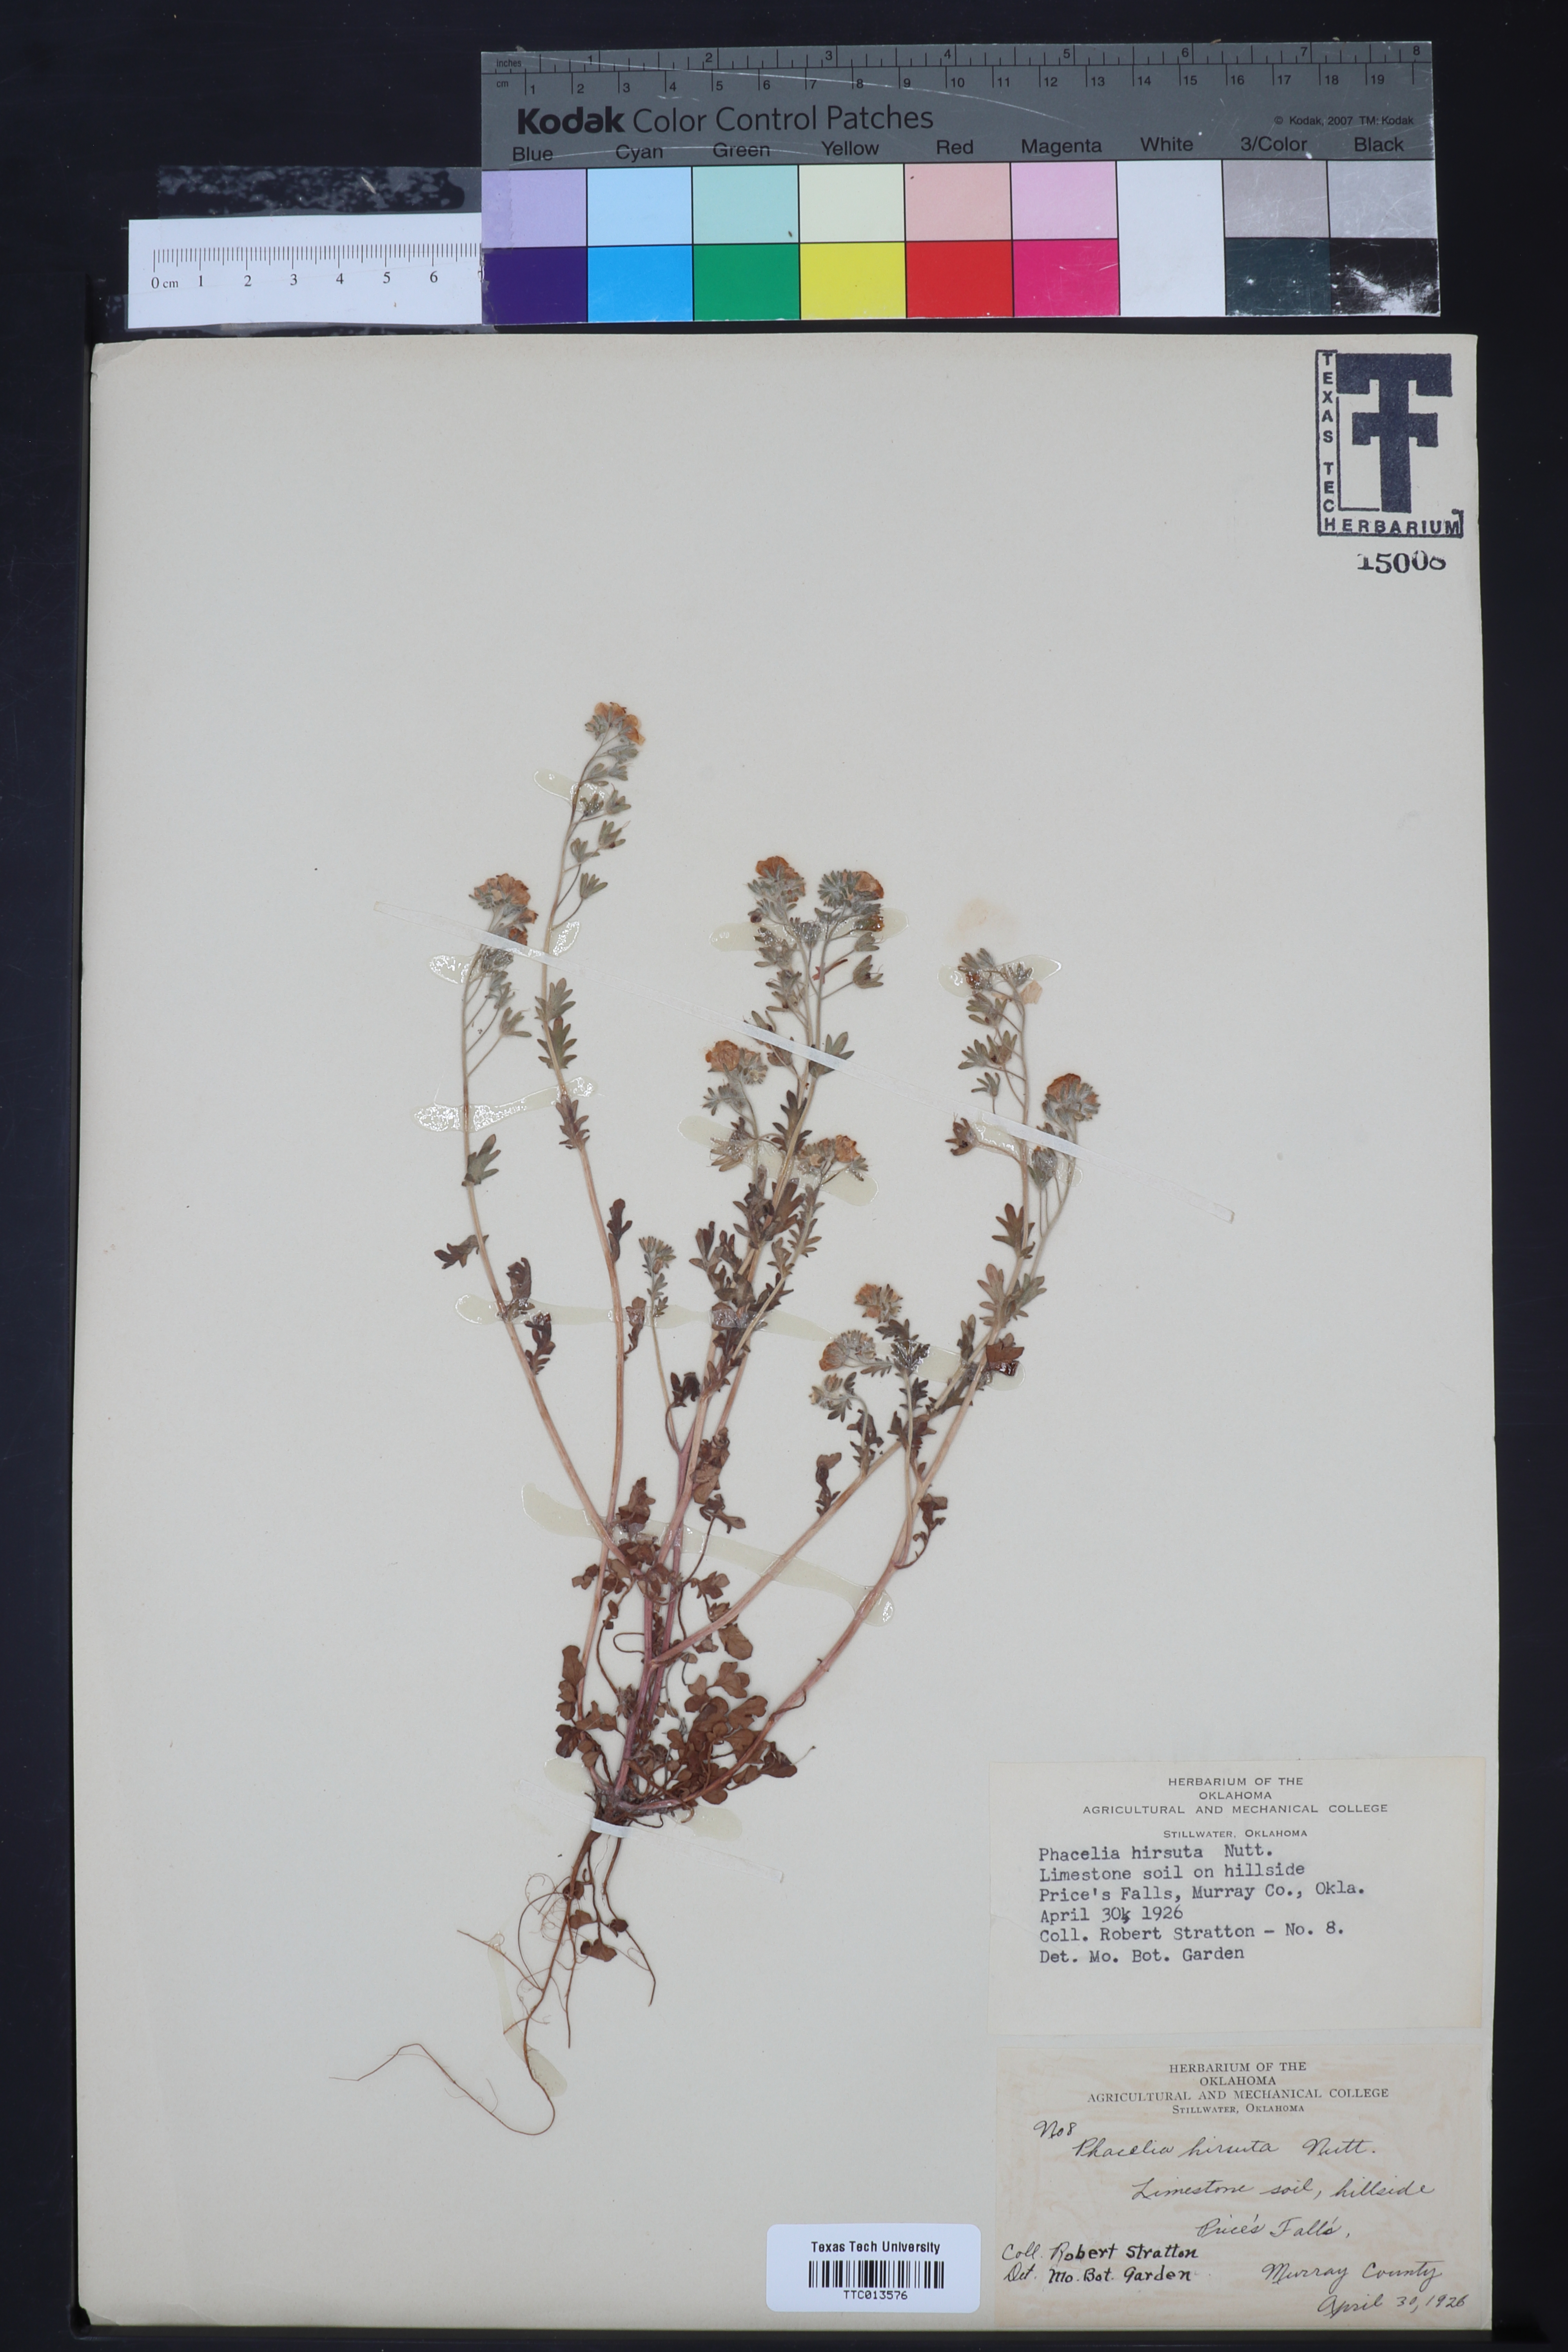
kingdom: Plantae
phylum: Tracheophyta
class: Magnoliopsida
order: Boraginales
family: Hydrophyllaceae
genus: Phacelia
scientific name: Phacelia hirsuta
